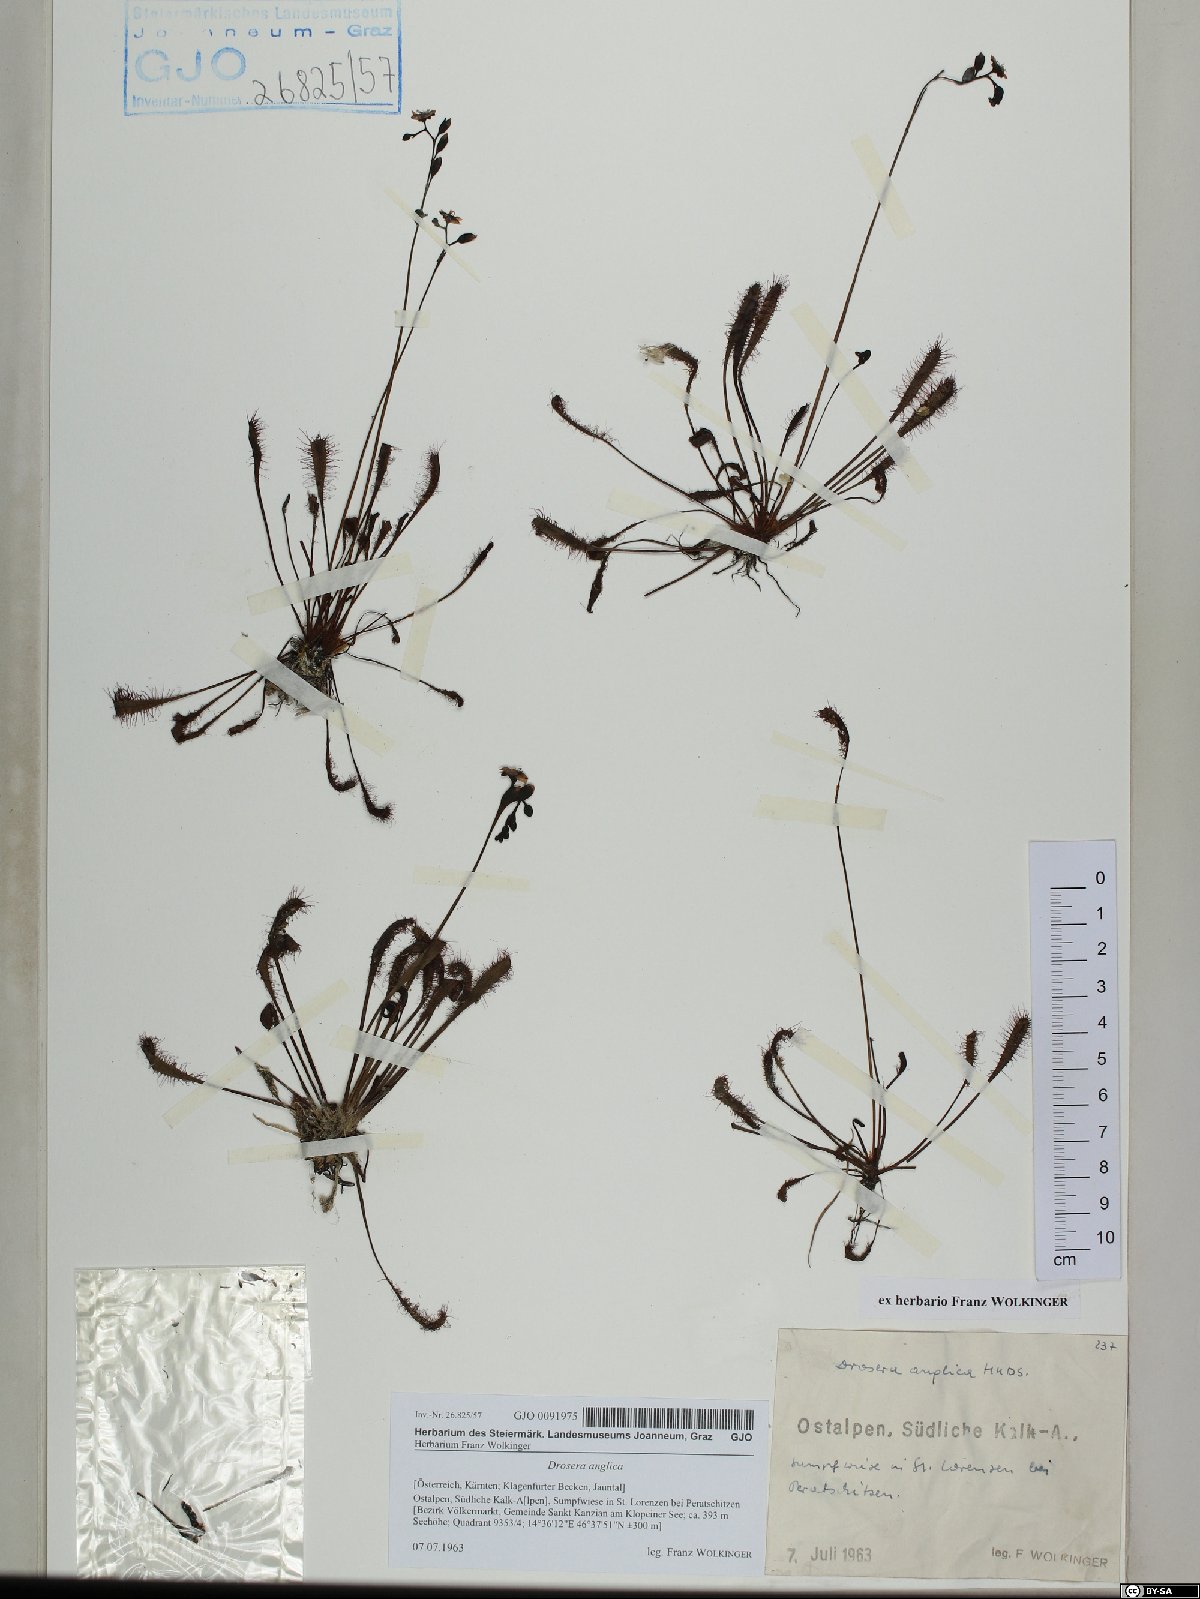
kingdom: Plantae
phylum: Tracheophyta
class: Magnoliopsida
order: Caryophyllales
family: Droseraceae
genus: Drosera
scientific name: Drosera anglica
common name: Great sundew
